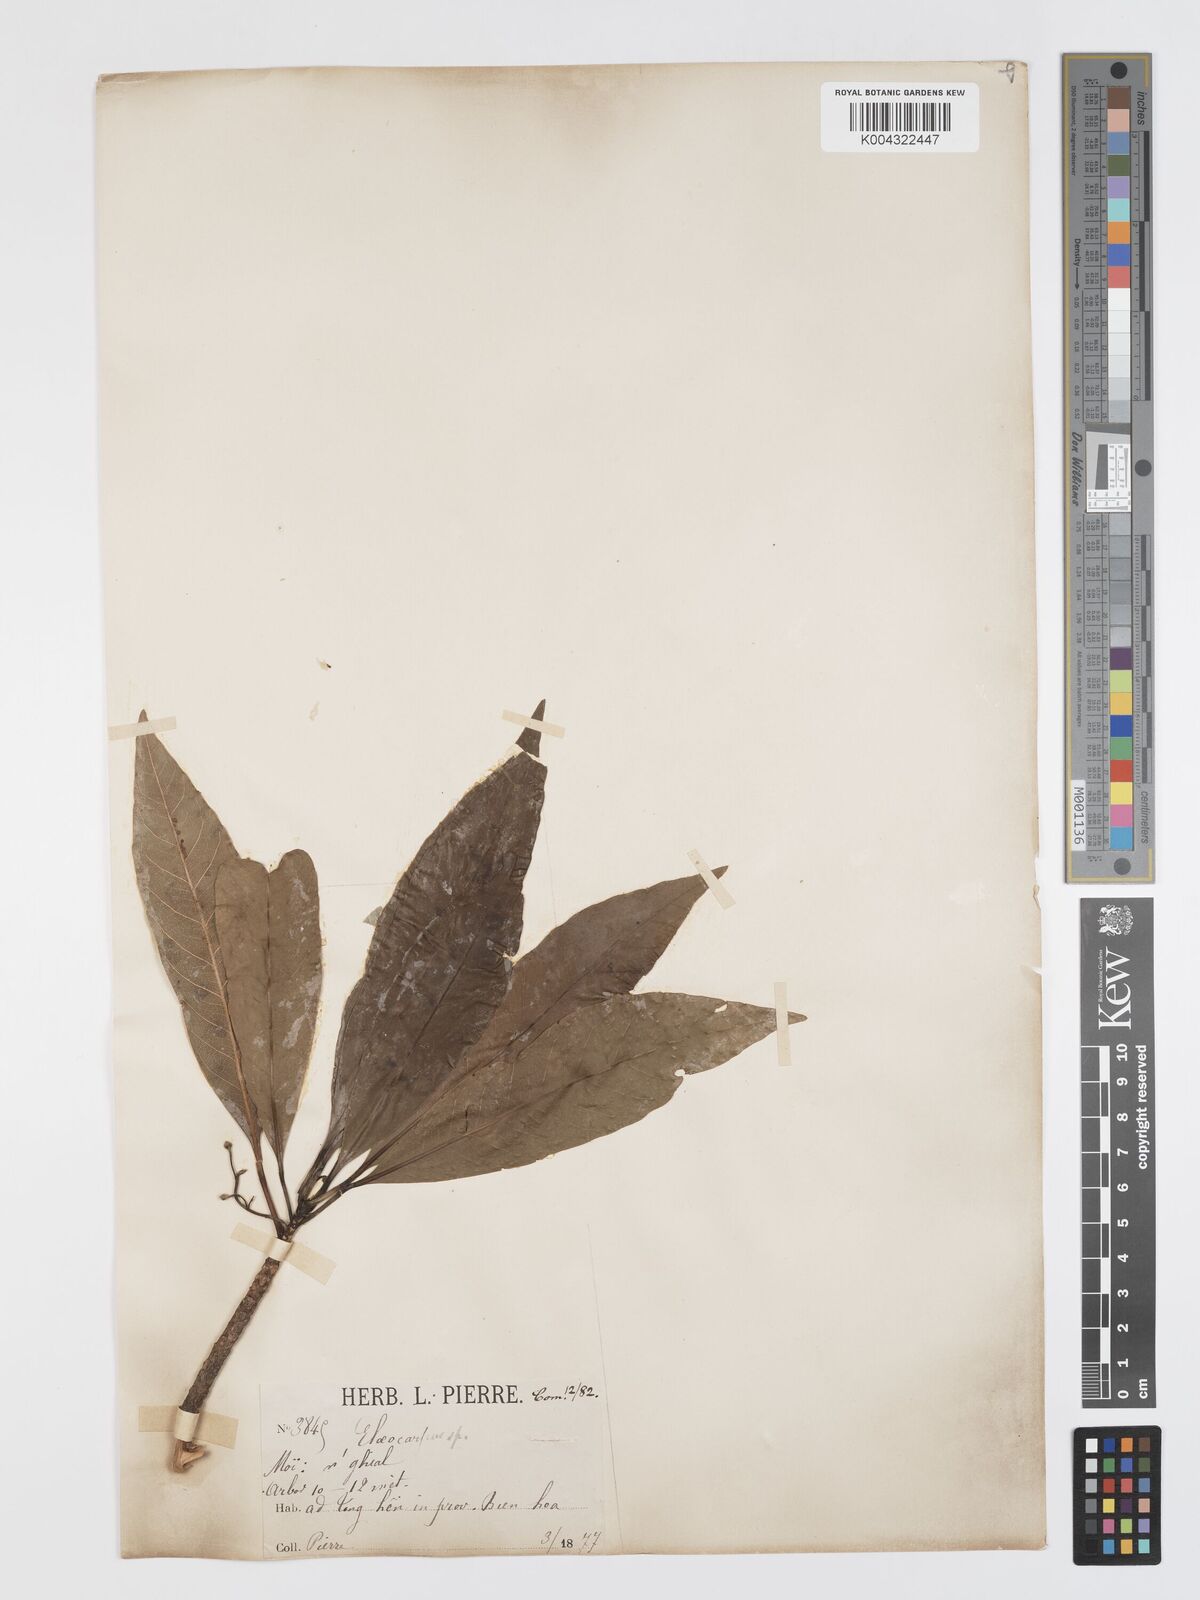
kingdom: Plantae
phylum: Tracheophyta
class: Magnoliopsida
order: Oxalidales
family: Elaeocarpaceae
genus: Elaeocarpus
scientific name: Elaeocarpus rivularis
